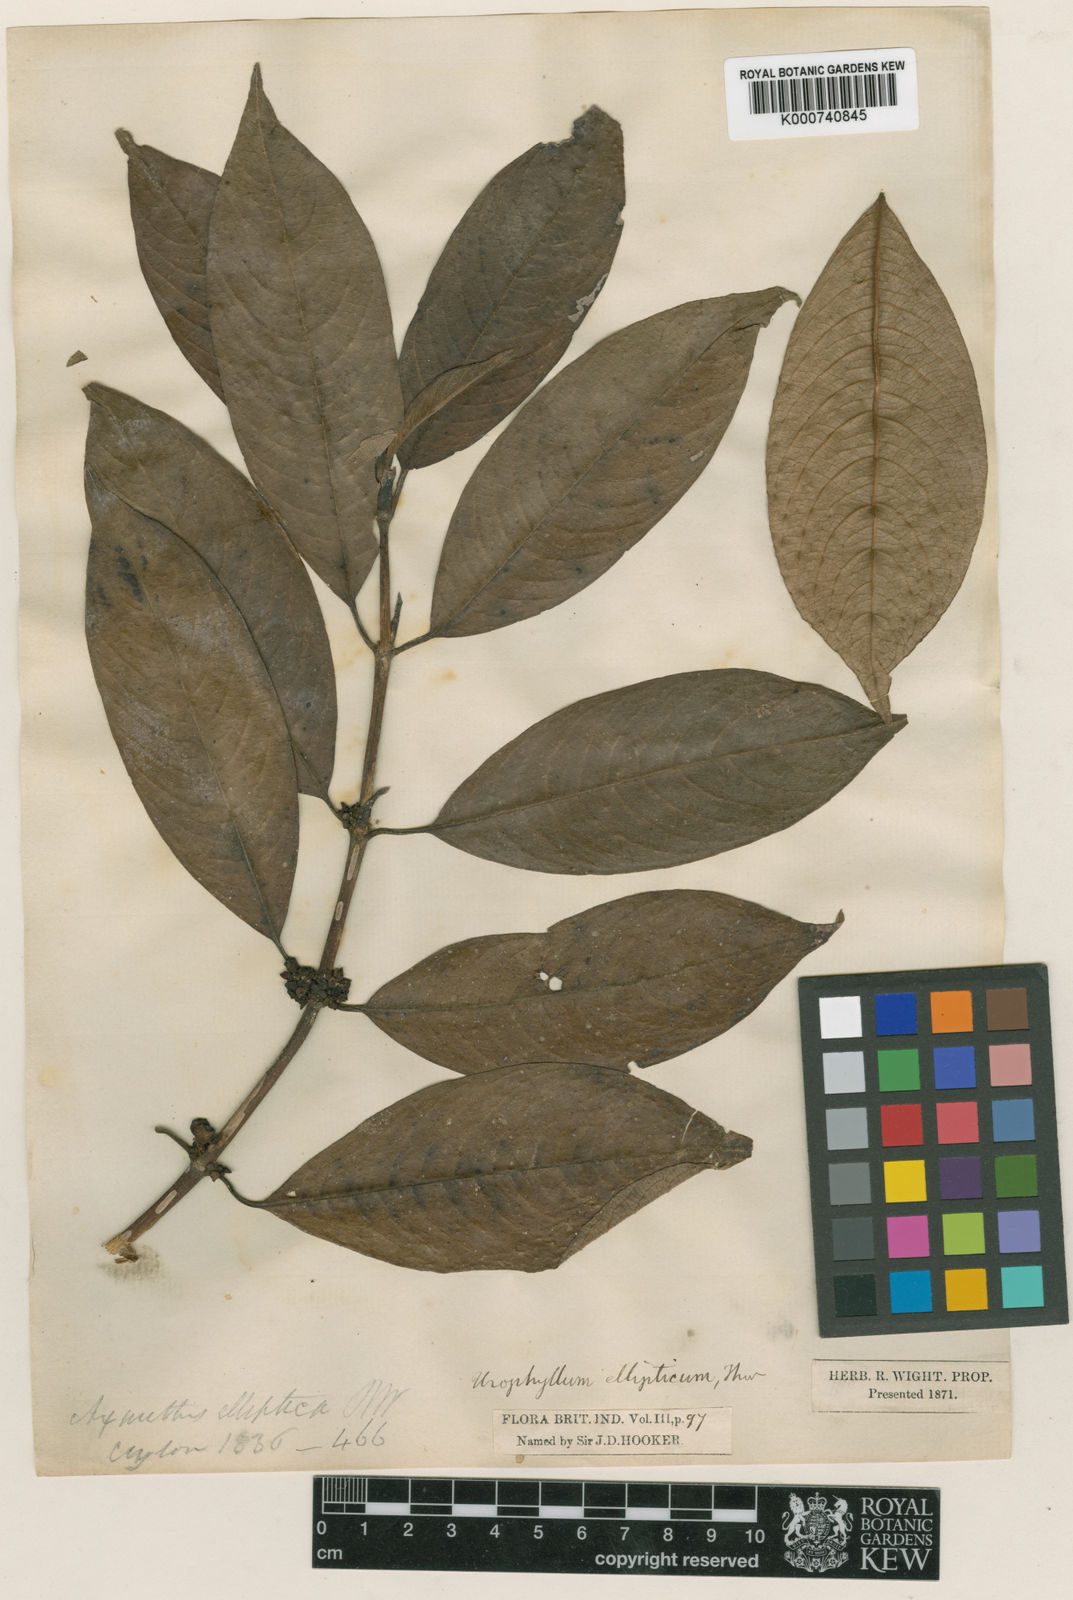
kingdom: Plantae
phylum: Tracheophyta
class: Magnoliopsida
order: Gentianales
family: Rubiaceae
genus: Urophyllum
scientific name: Urophyllum ellipticum
